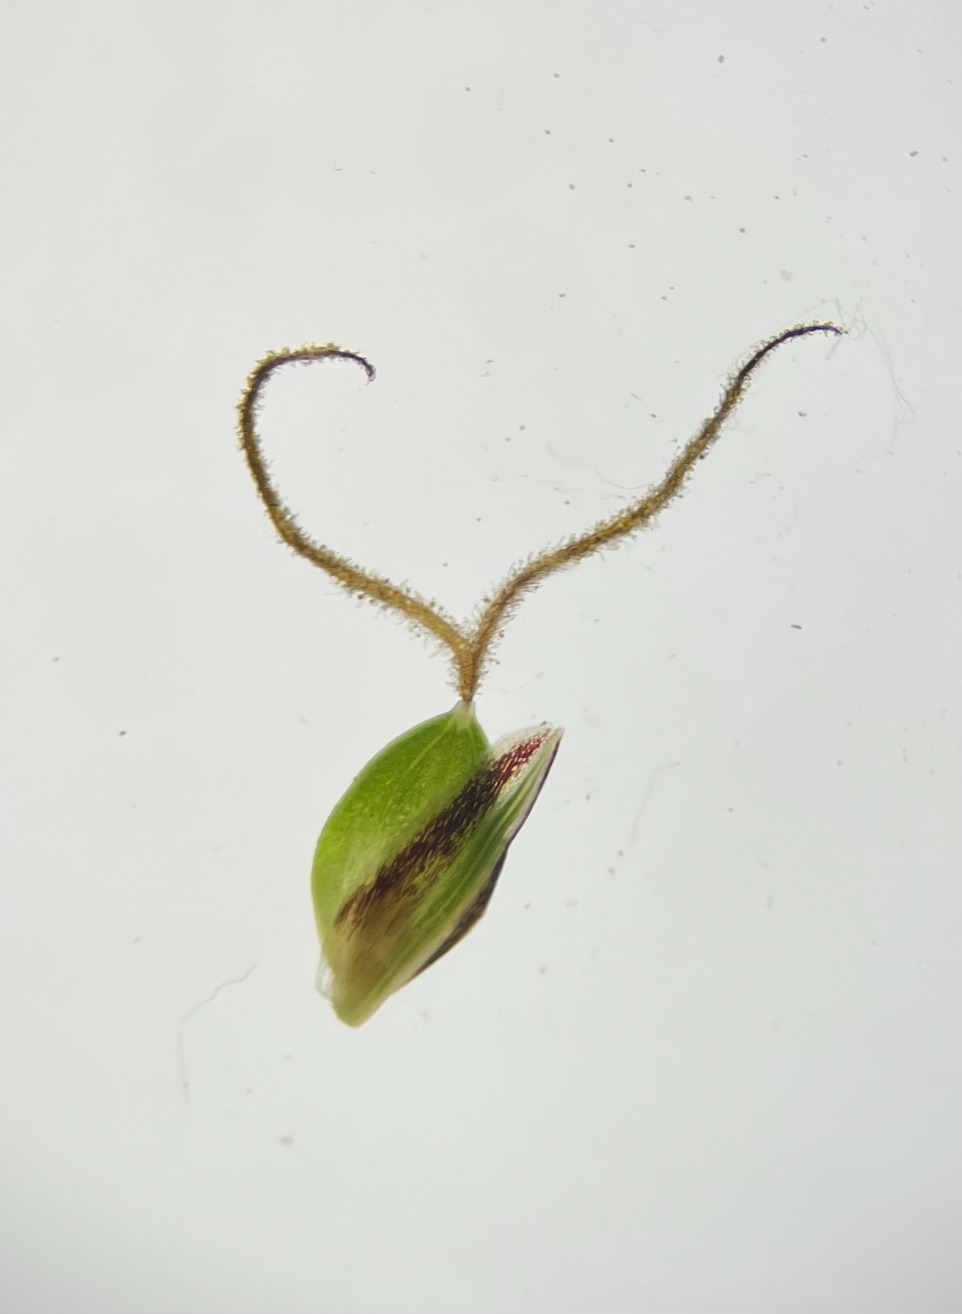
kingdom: Plantae
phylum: Tracheophyta
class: Liliopsida
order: Poales
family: Cyperaceae
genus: Carex
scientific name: Carex trinervis
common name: Klit-star
